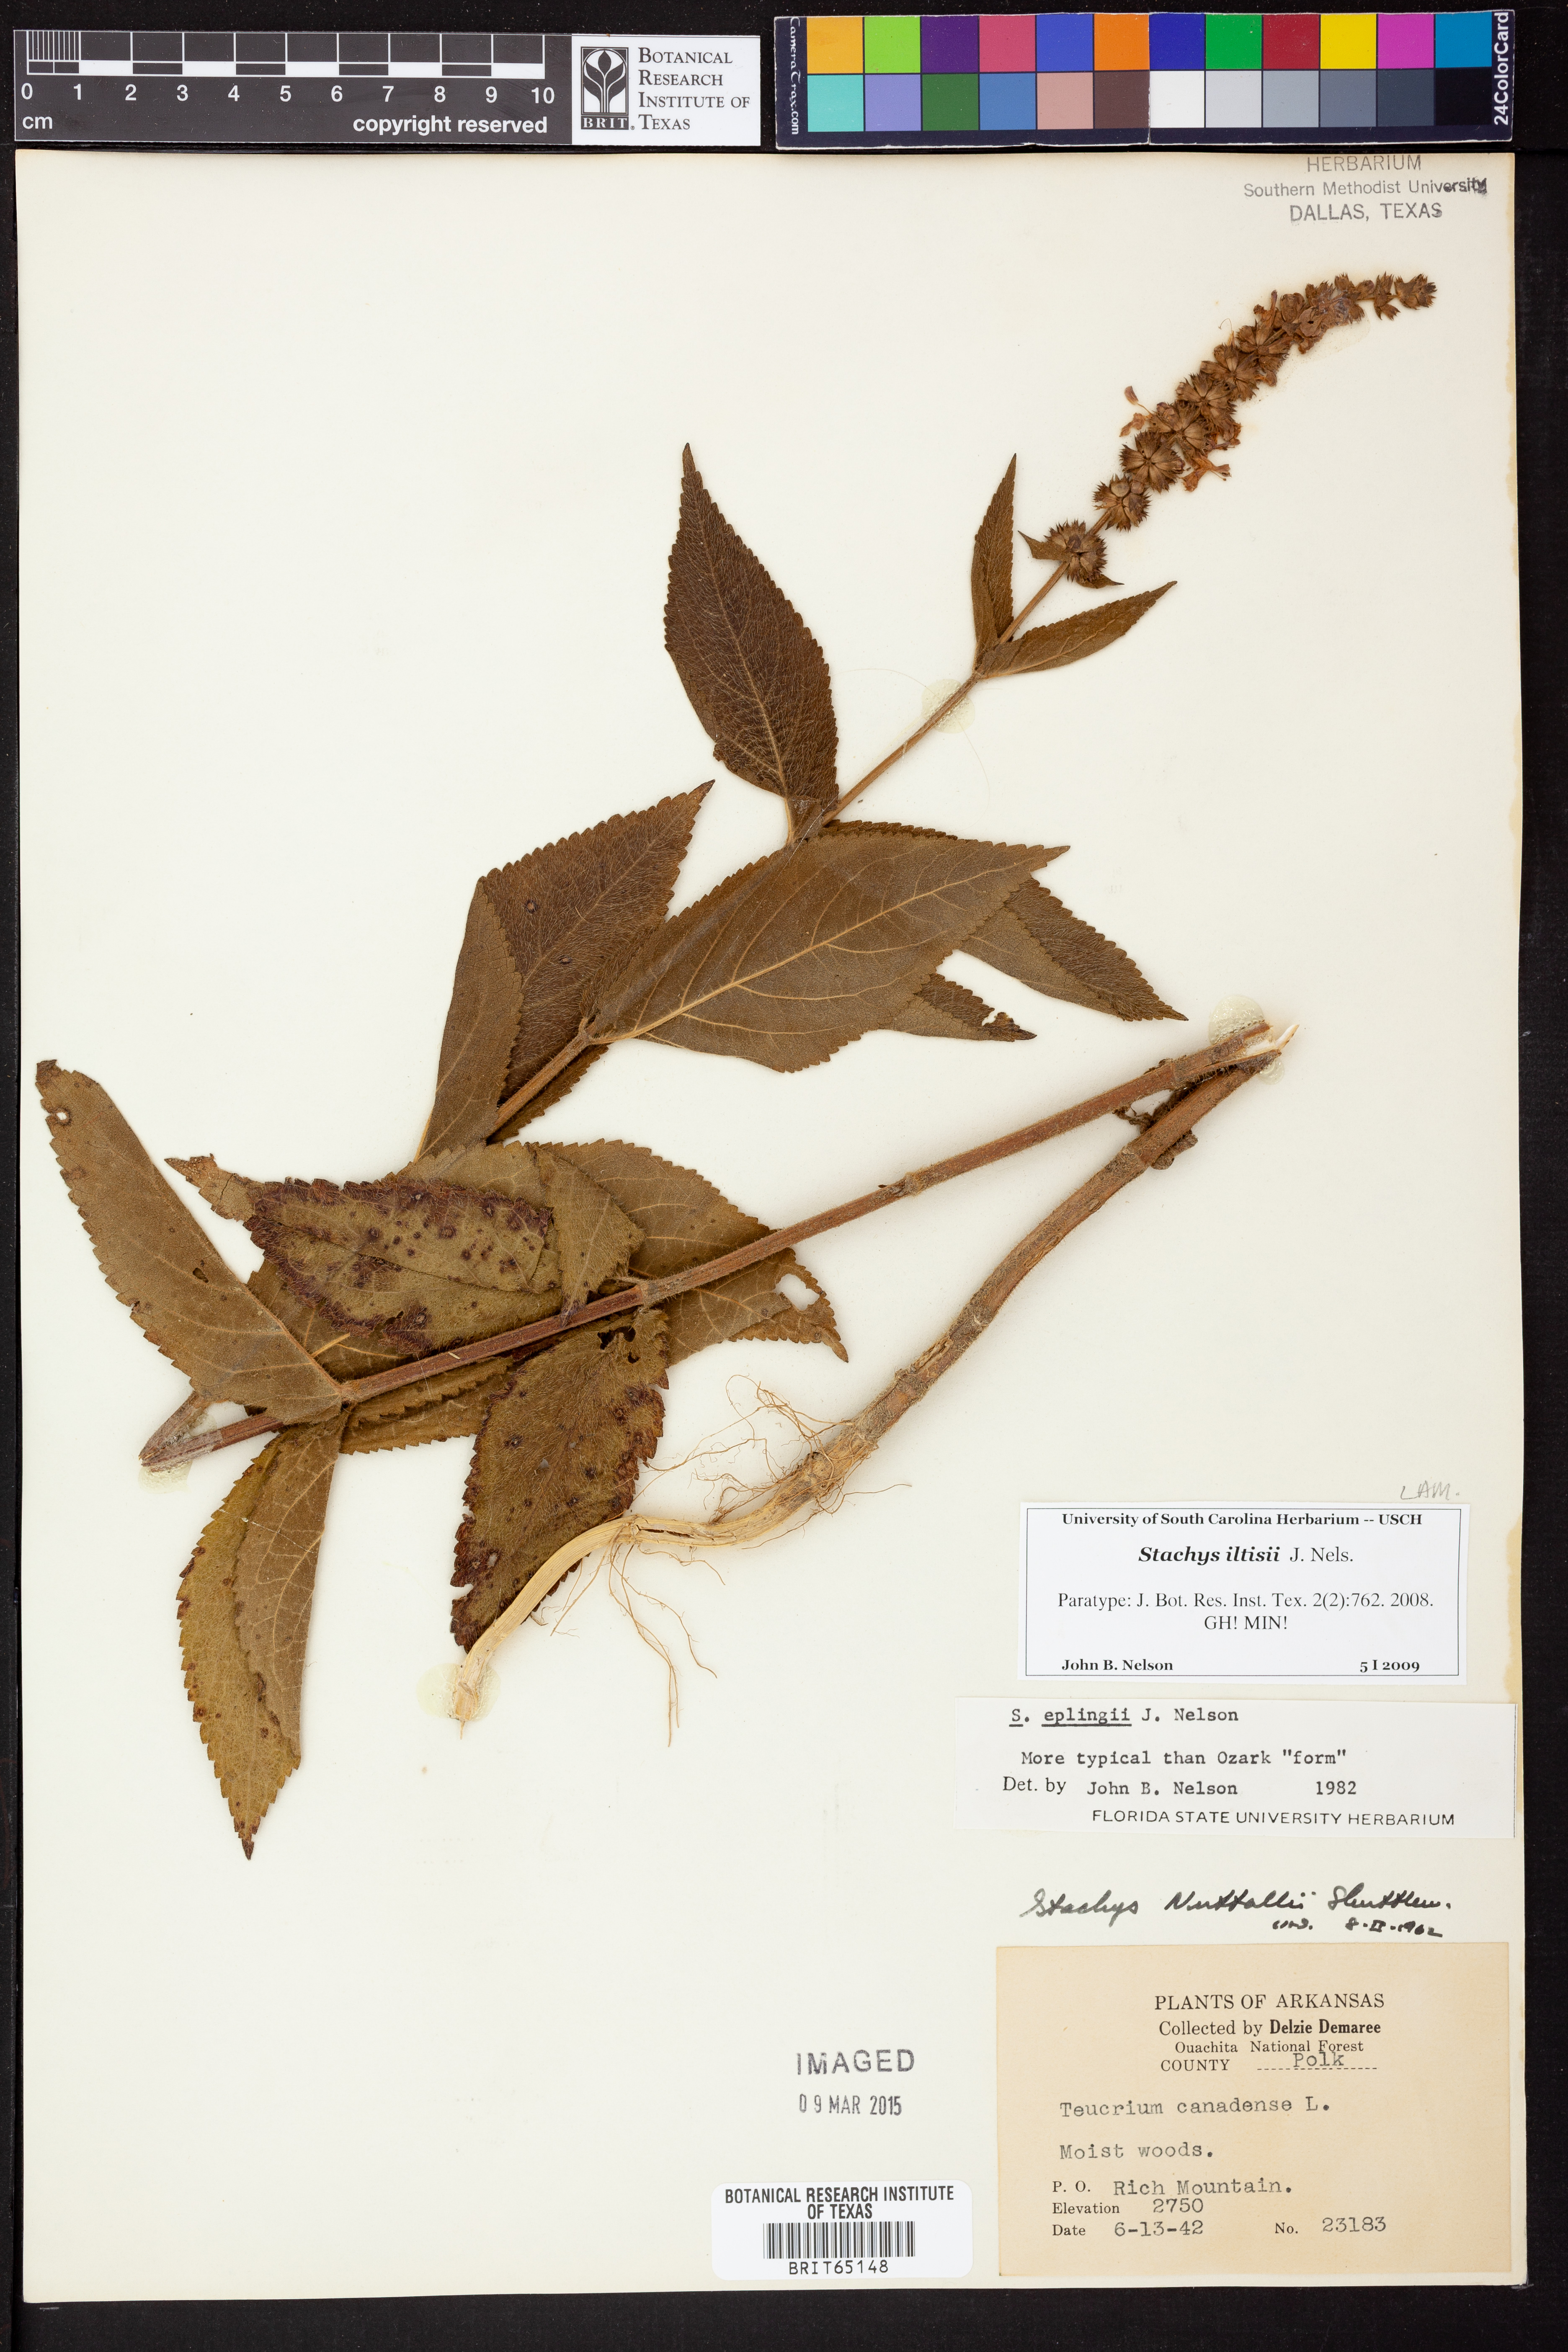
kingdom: Plantae
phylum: Tracheophyta
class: Magnoliopsida
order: Lamiales
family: Lamiaceae
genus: Stachys
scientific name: Stachys iltisii
